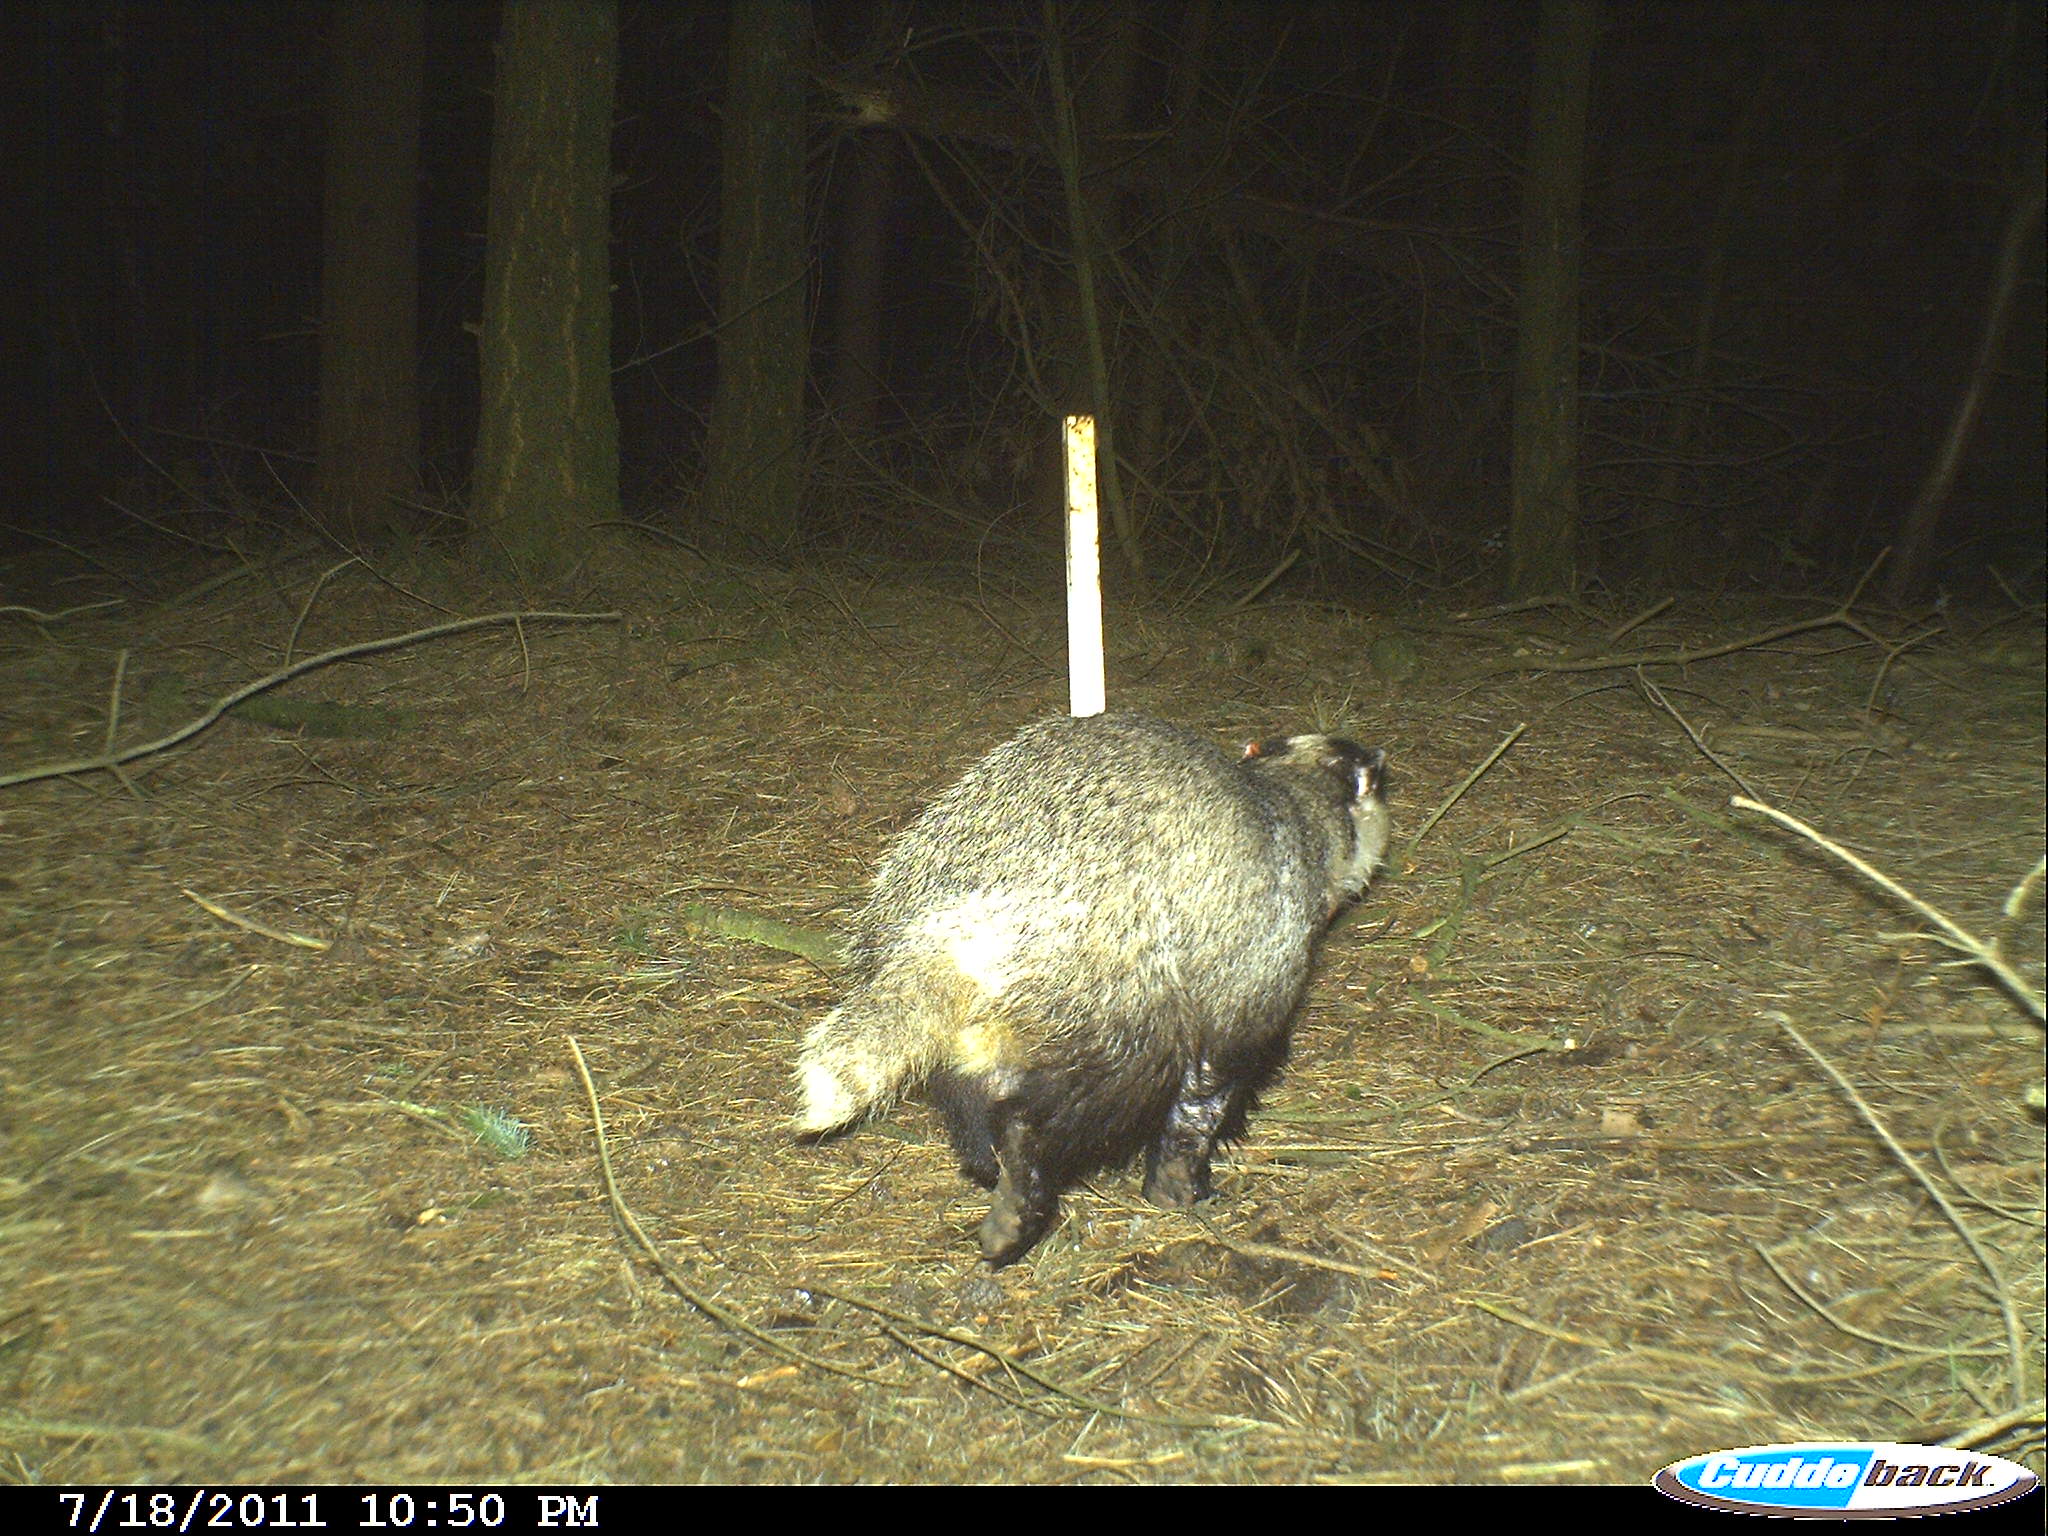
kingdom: Animalia
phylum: Chordata
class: Mammalia
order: Carnivora
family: Mustelidae
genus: Meles
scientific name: Meles meles
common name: Eurasian badger
